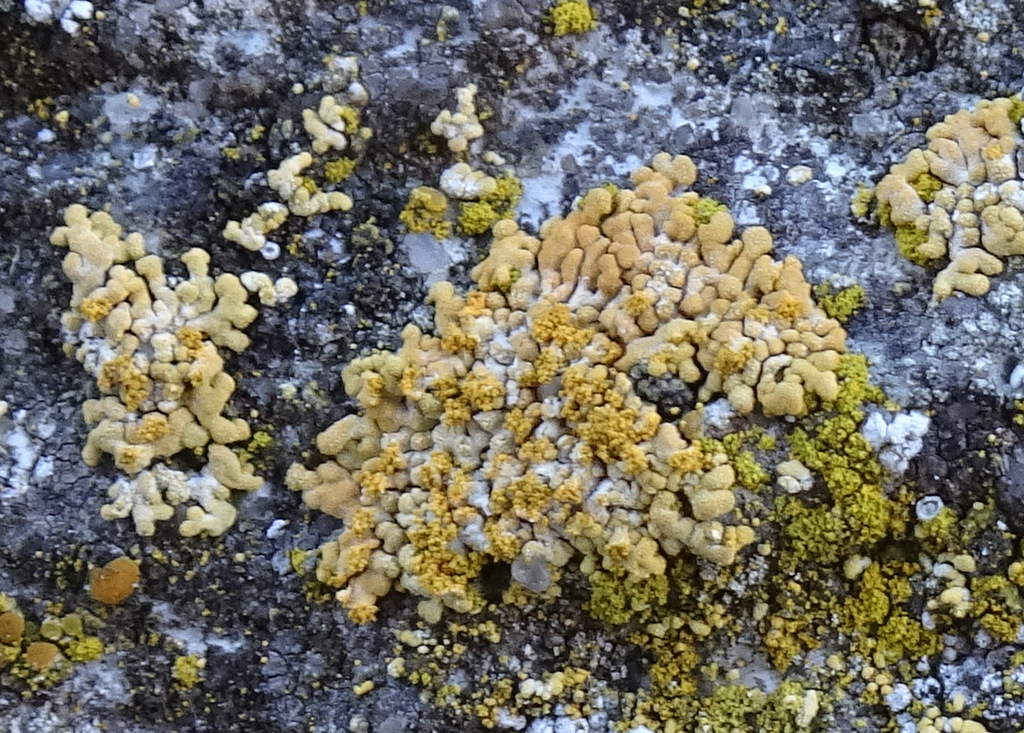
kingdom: Fungi
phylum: Ascomycota
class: Lecanoromycetes
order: Teloschistales
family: Teloschistaceae
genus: Calogaya
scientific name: Calogaya decipiens
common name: knudret orangelav
